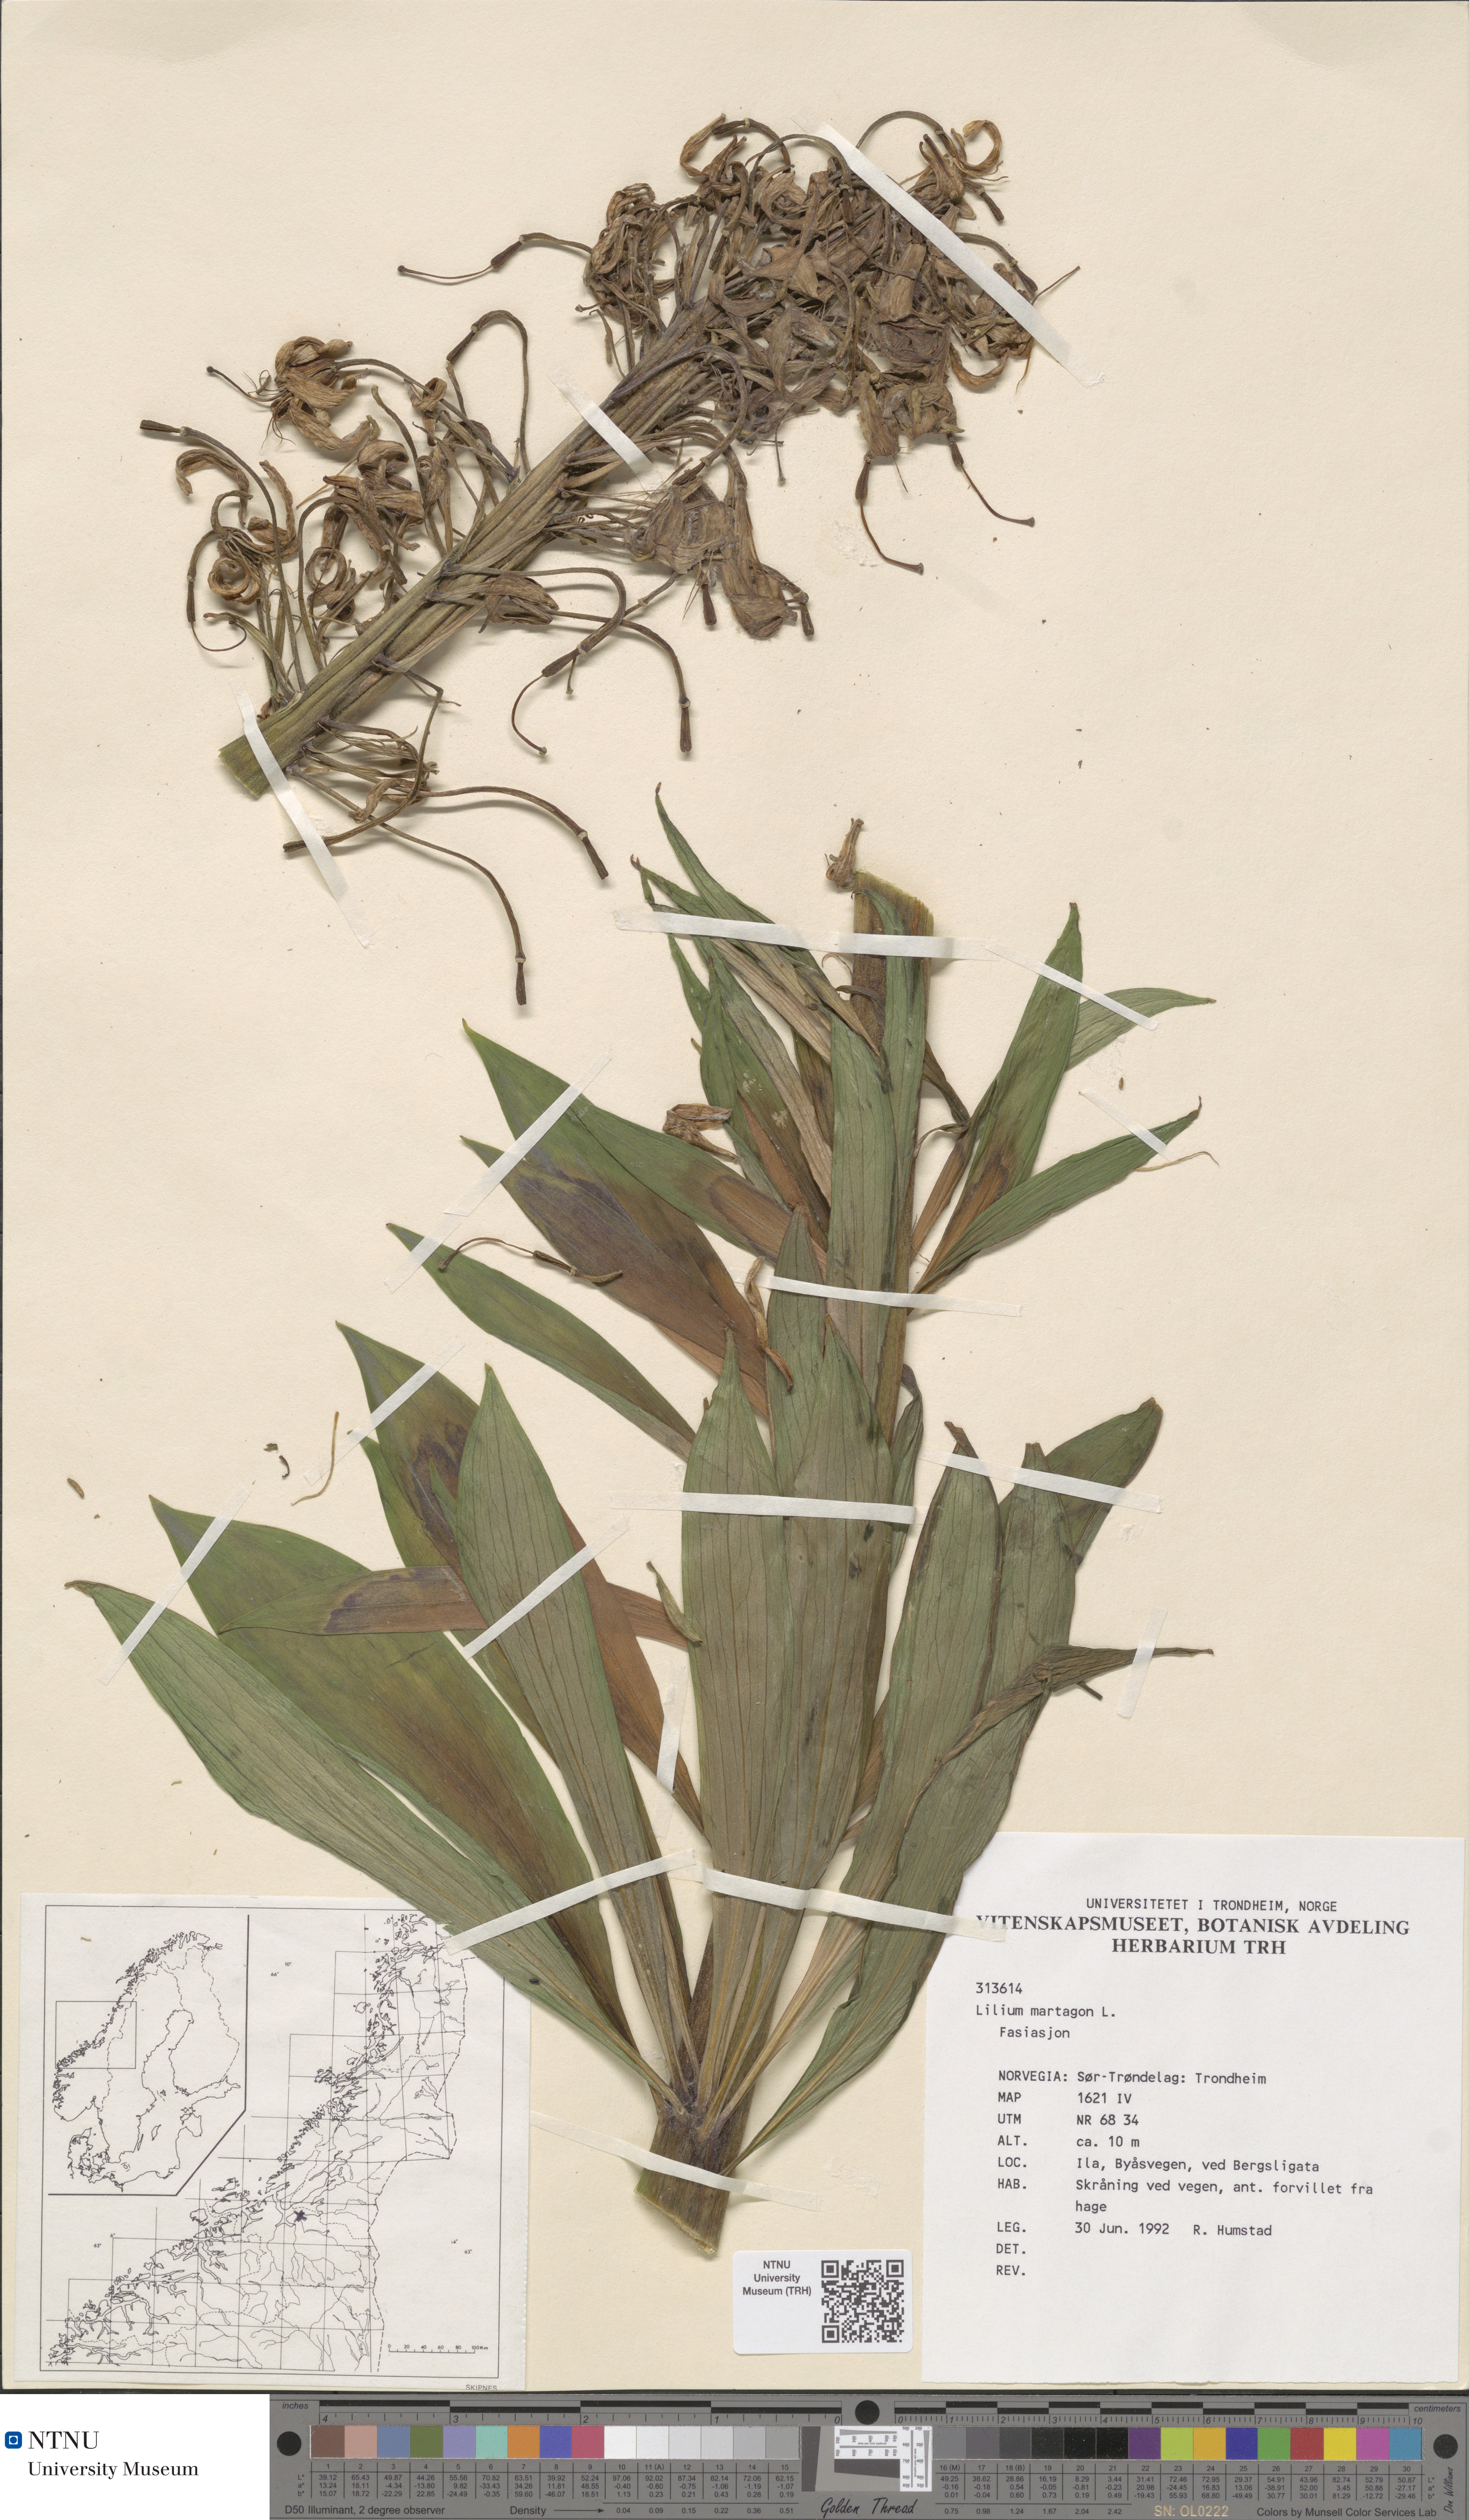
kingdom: Plantae
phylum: Tracheophyta
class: Liliopsida
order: Liliales
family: Liliaceae
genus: Lilium
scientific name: Lilium martagon
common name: Martagon lily
